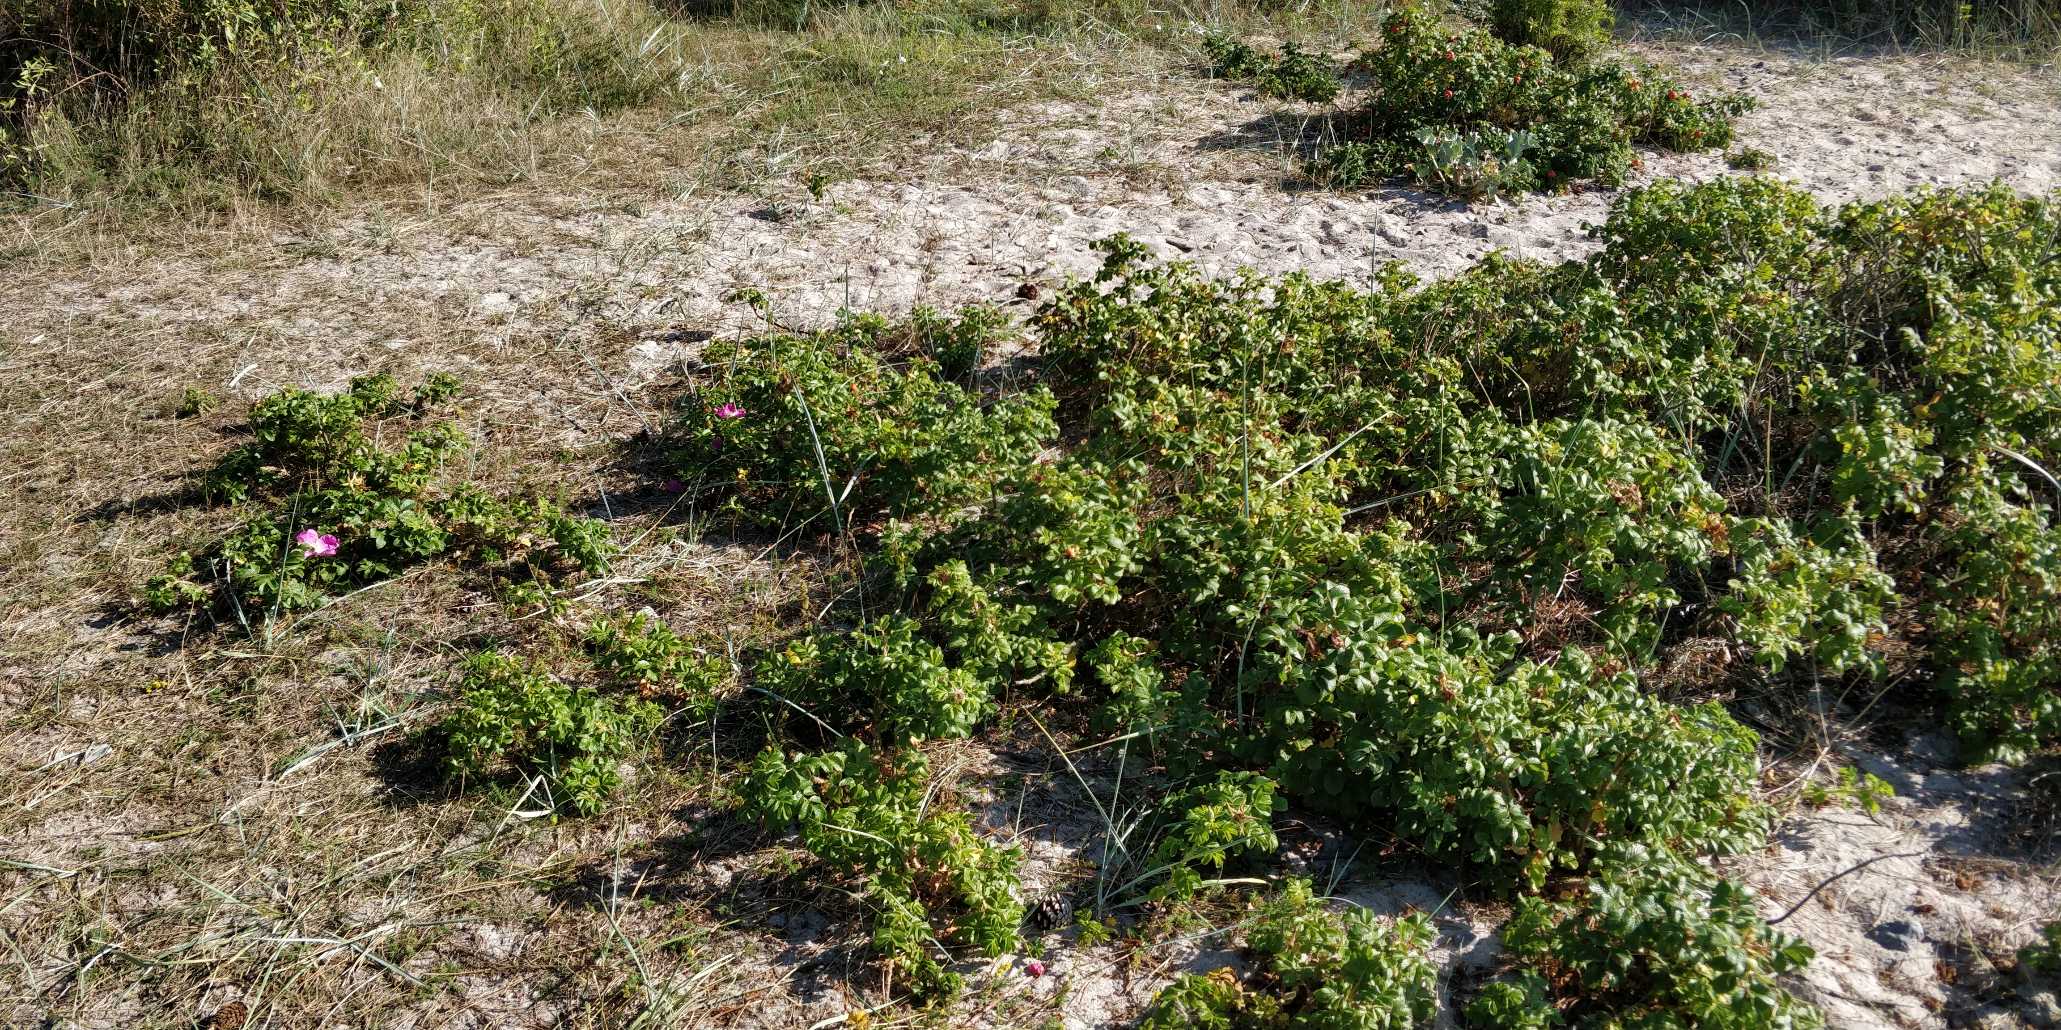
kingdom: Plantae
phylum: Tracheophyta
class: Magnoliopsida
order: Rosales
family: Rosaceae
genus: Rosa
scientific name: Rosa rugosa
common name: Rynket rose
